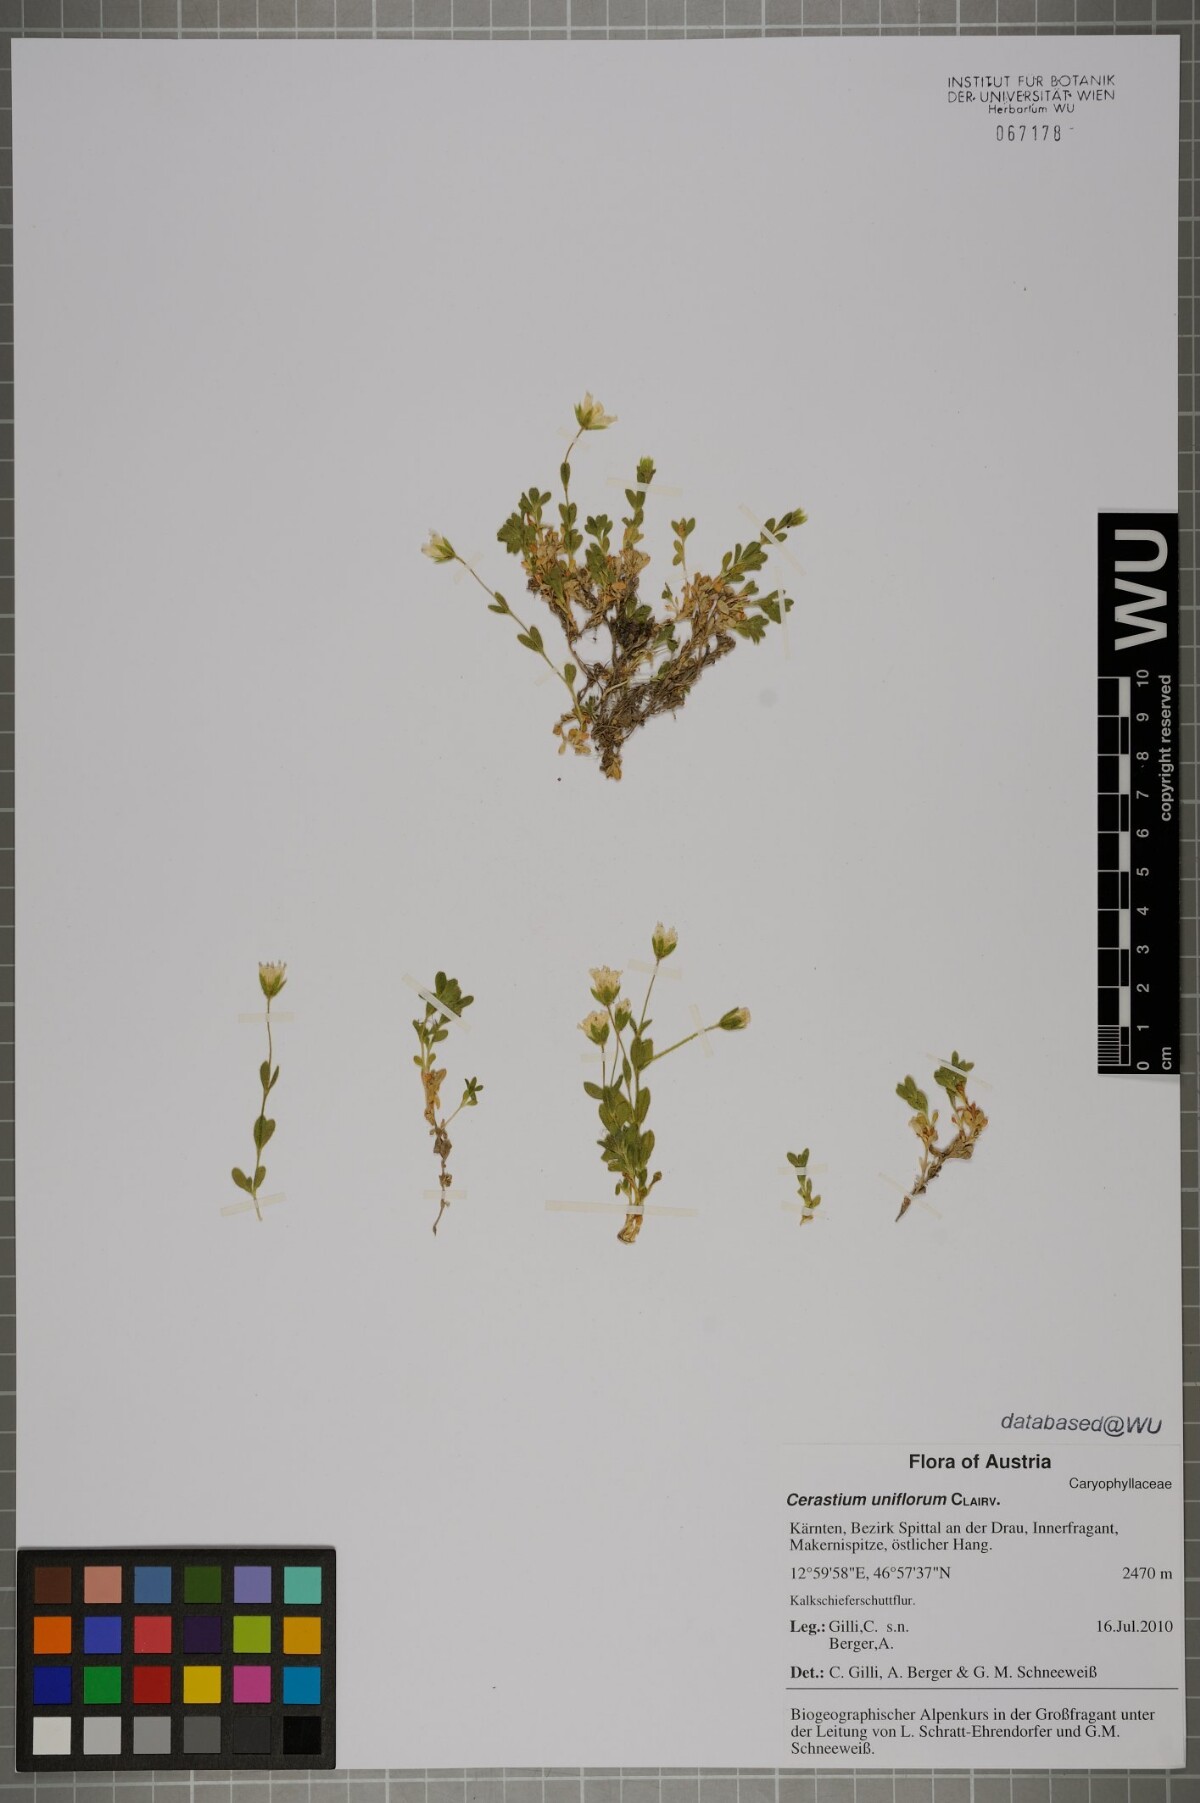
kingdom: Plantae
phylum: Tracheophyta
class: Magnoliopsida
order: Caryophyllales
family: Caryophyllaceae
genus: Cerastium
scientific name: Cerastium uniflorum
